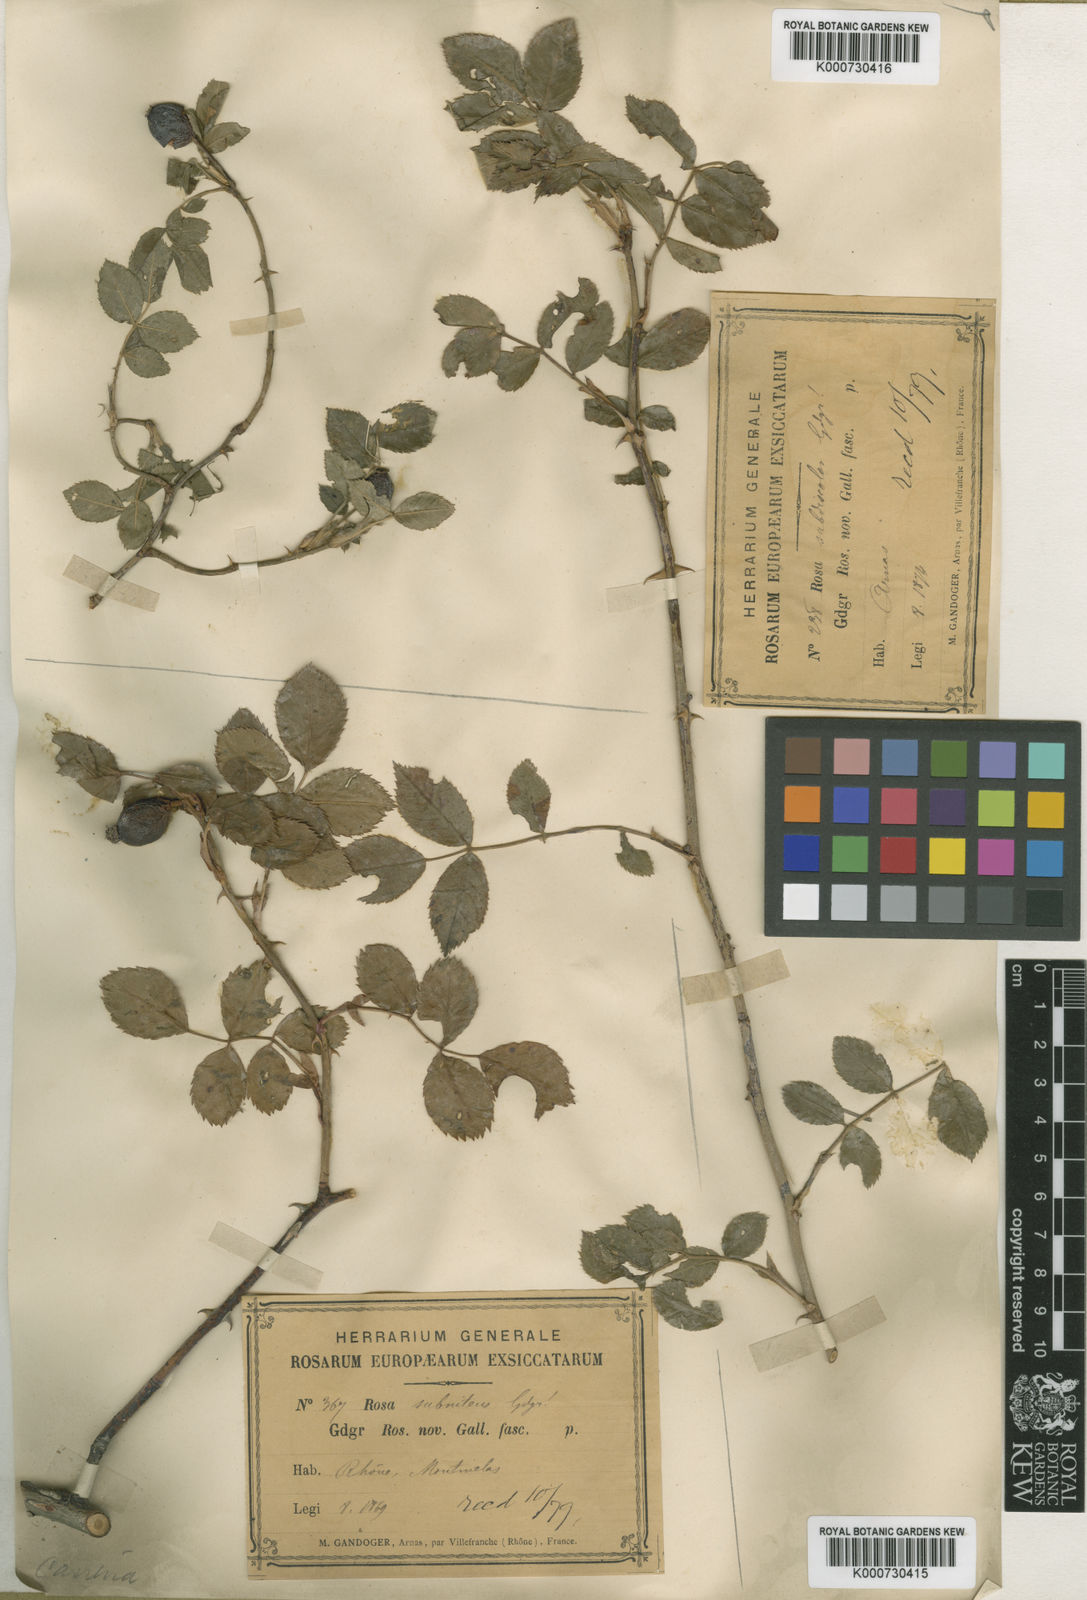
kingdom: Plantae
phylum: Tracheophyta
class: Magnoliopsida
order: Rosales
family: Rosaceae
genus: Rosa
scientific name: Rosa canina
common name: Dog rose
